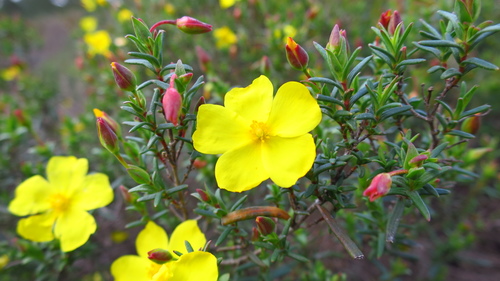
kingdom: Plantae
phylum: Tracheophyta
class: Magnoliopsida
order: Malvales
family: Cistaceae
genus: Halimium
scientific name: Halimium calycinum
